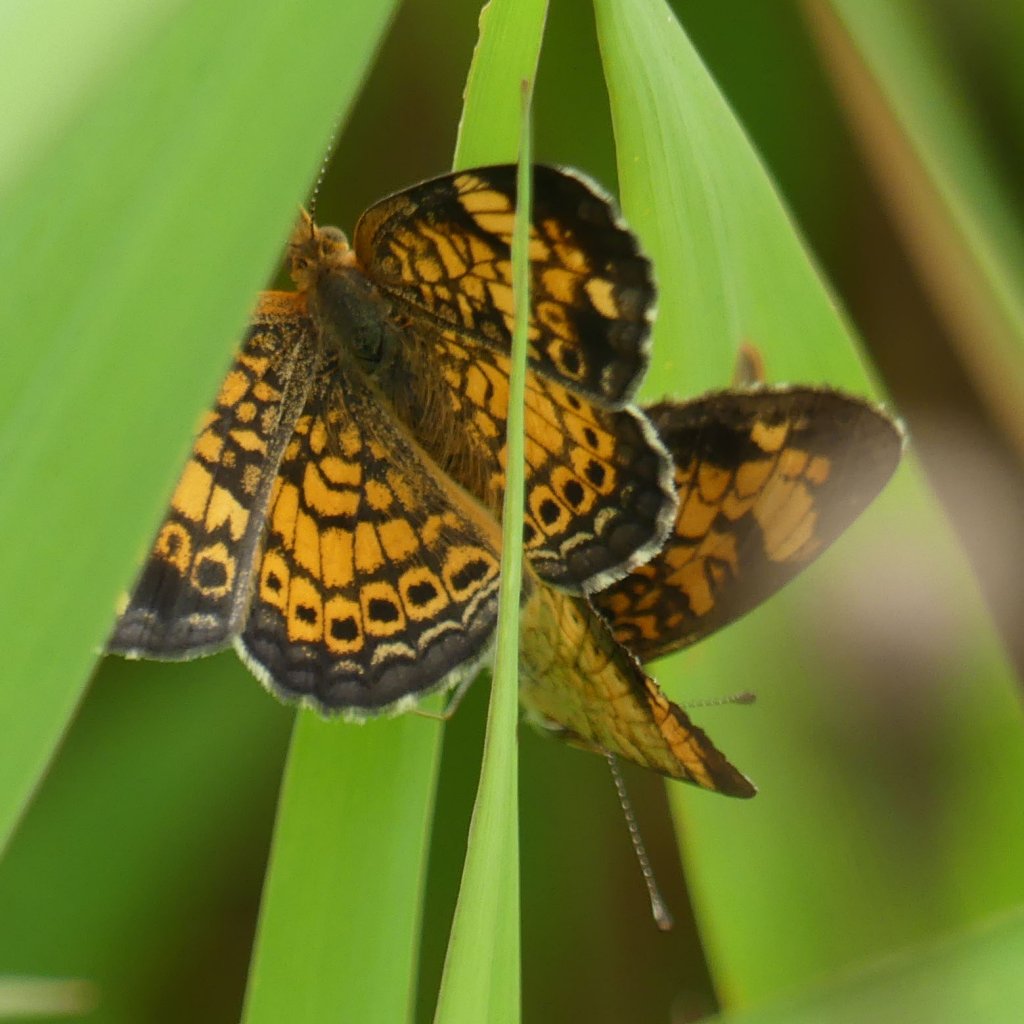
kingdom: Animalia
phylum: Arthropoda
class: Insecta
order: Lepidoptera
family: Nymphalidae
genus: Phyciodes
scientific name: Phyciodes tharos
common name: Pearl Crescent
